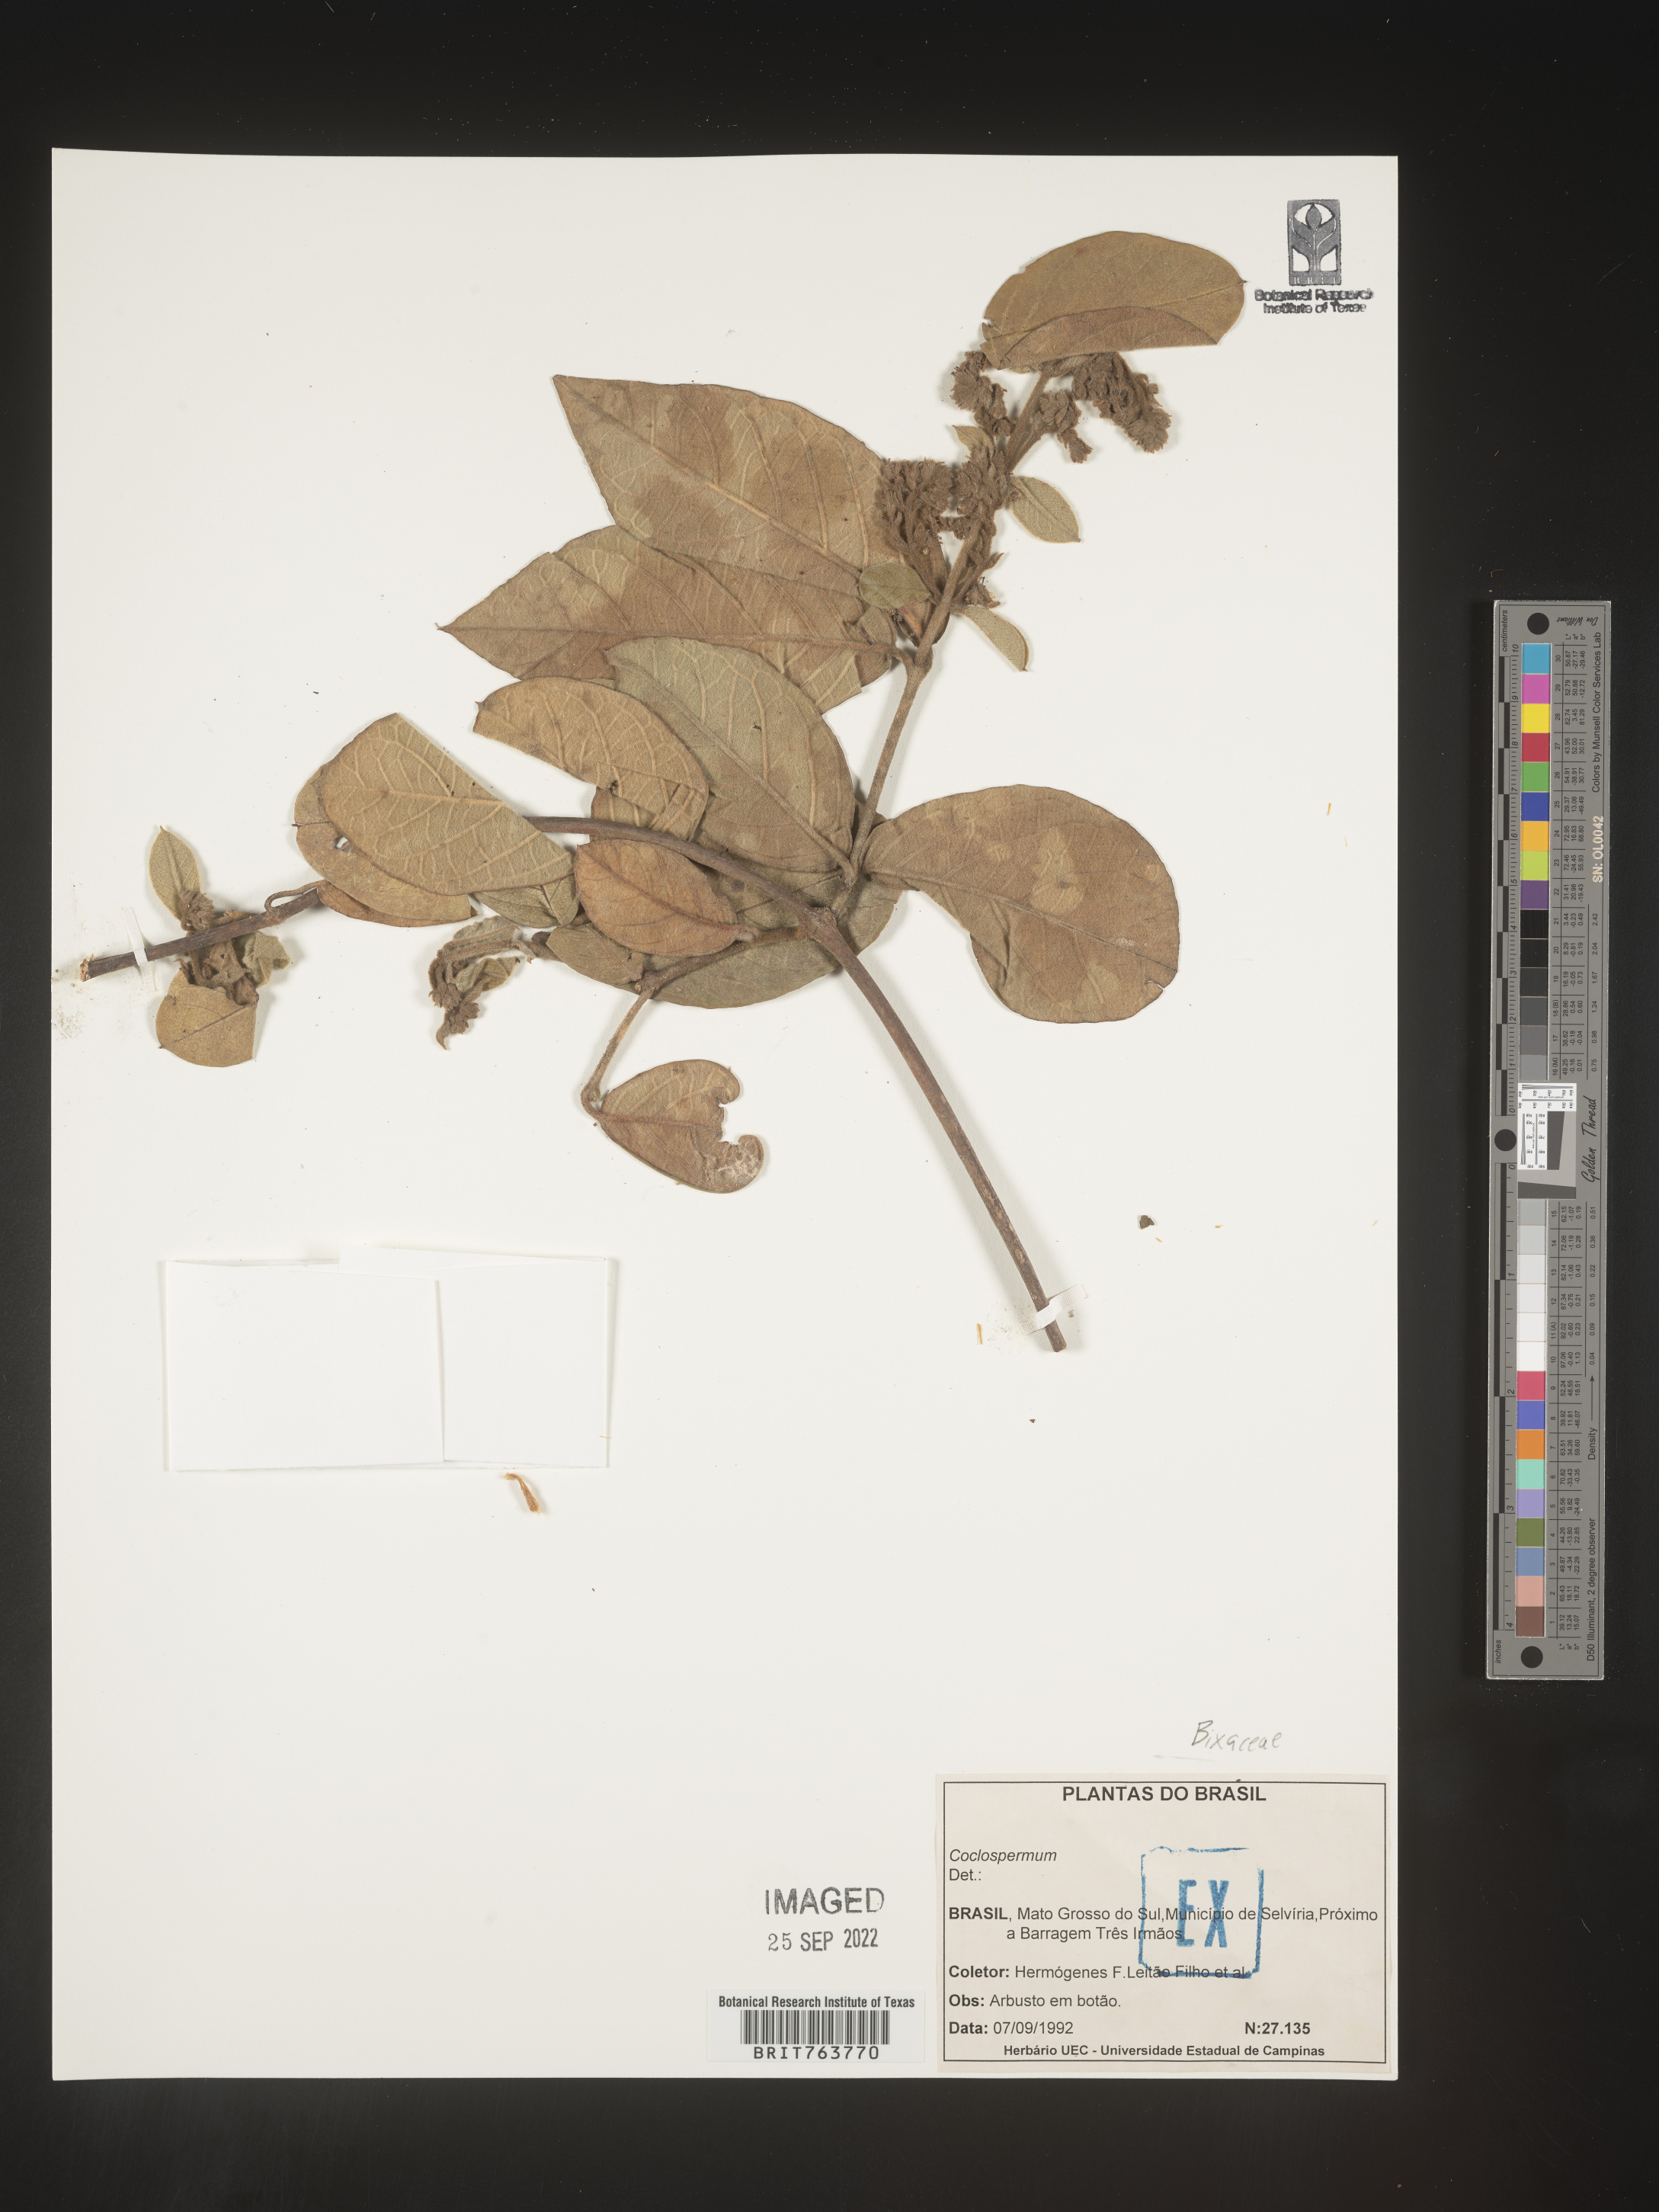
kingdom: Plantae
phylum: Tracheophyta
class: Magnoliopsida
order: Malvales
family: Cochlospermaceae
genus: Cochlospermum
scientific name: Cochlospermum
